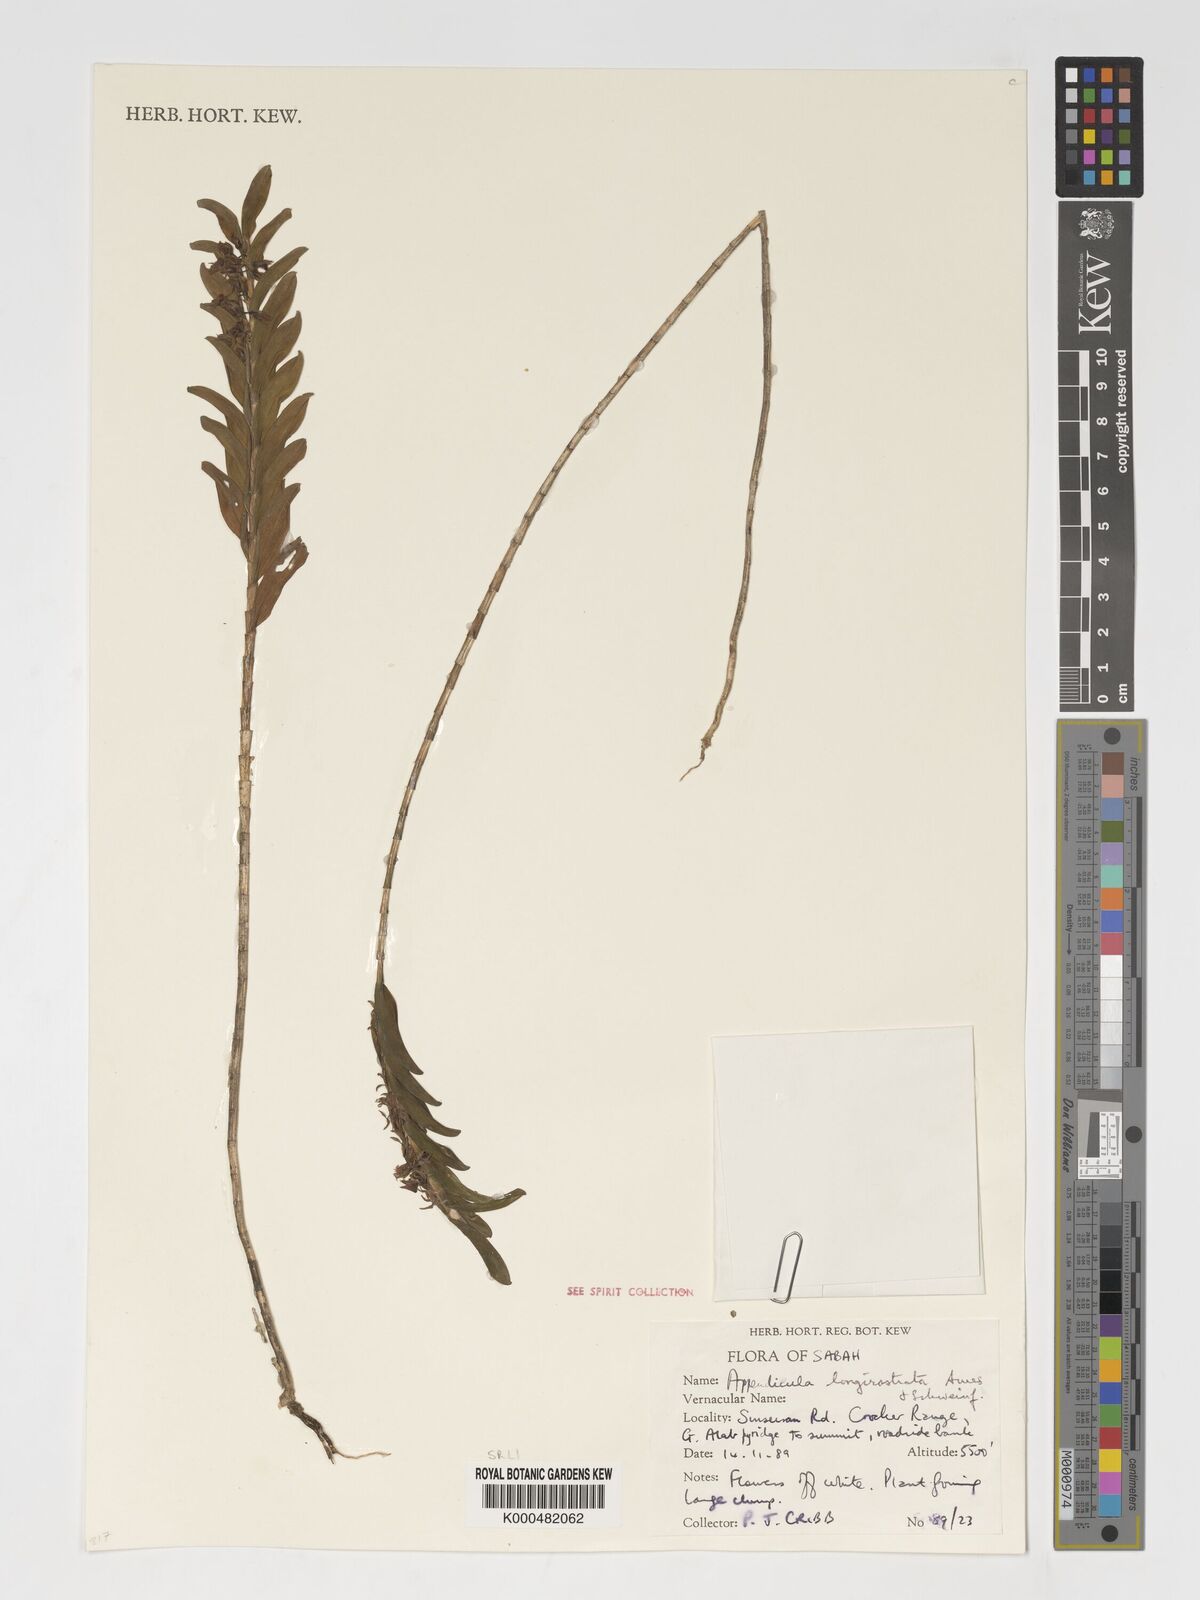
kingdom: Plantae
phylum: Tracheophyta
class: Liliopsida
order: Asparagales
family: Orchidaceae
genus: Appendicula
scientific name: Appendicula longirostrata
